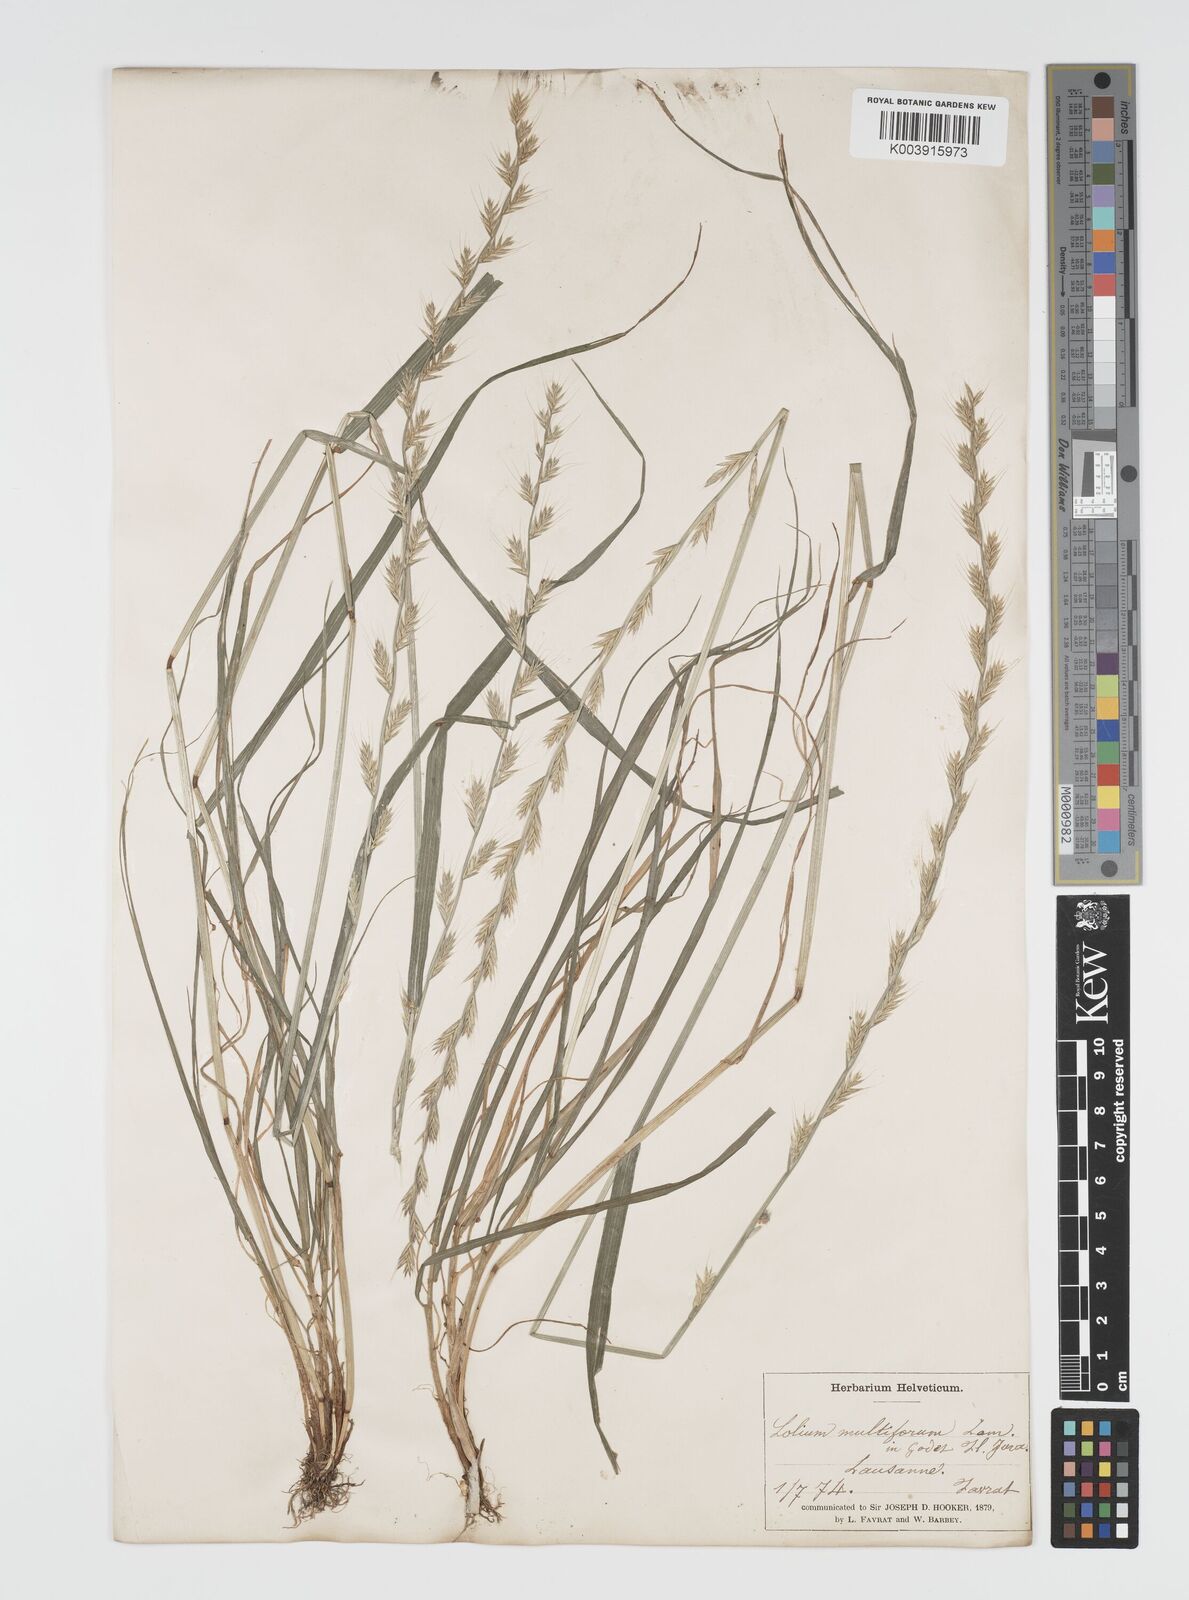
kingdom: Plantae
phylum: Tracheophyta
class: Liliopsida
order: Poales
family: Poaceae
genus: Lolium
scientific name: Lolium multiflorum
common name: Annual ryegrass
